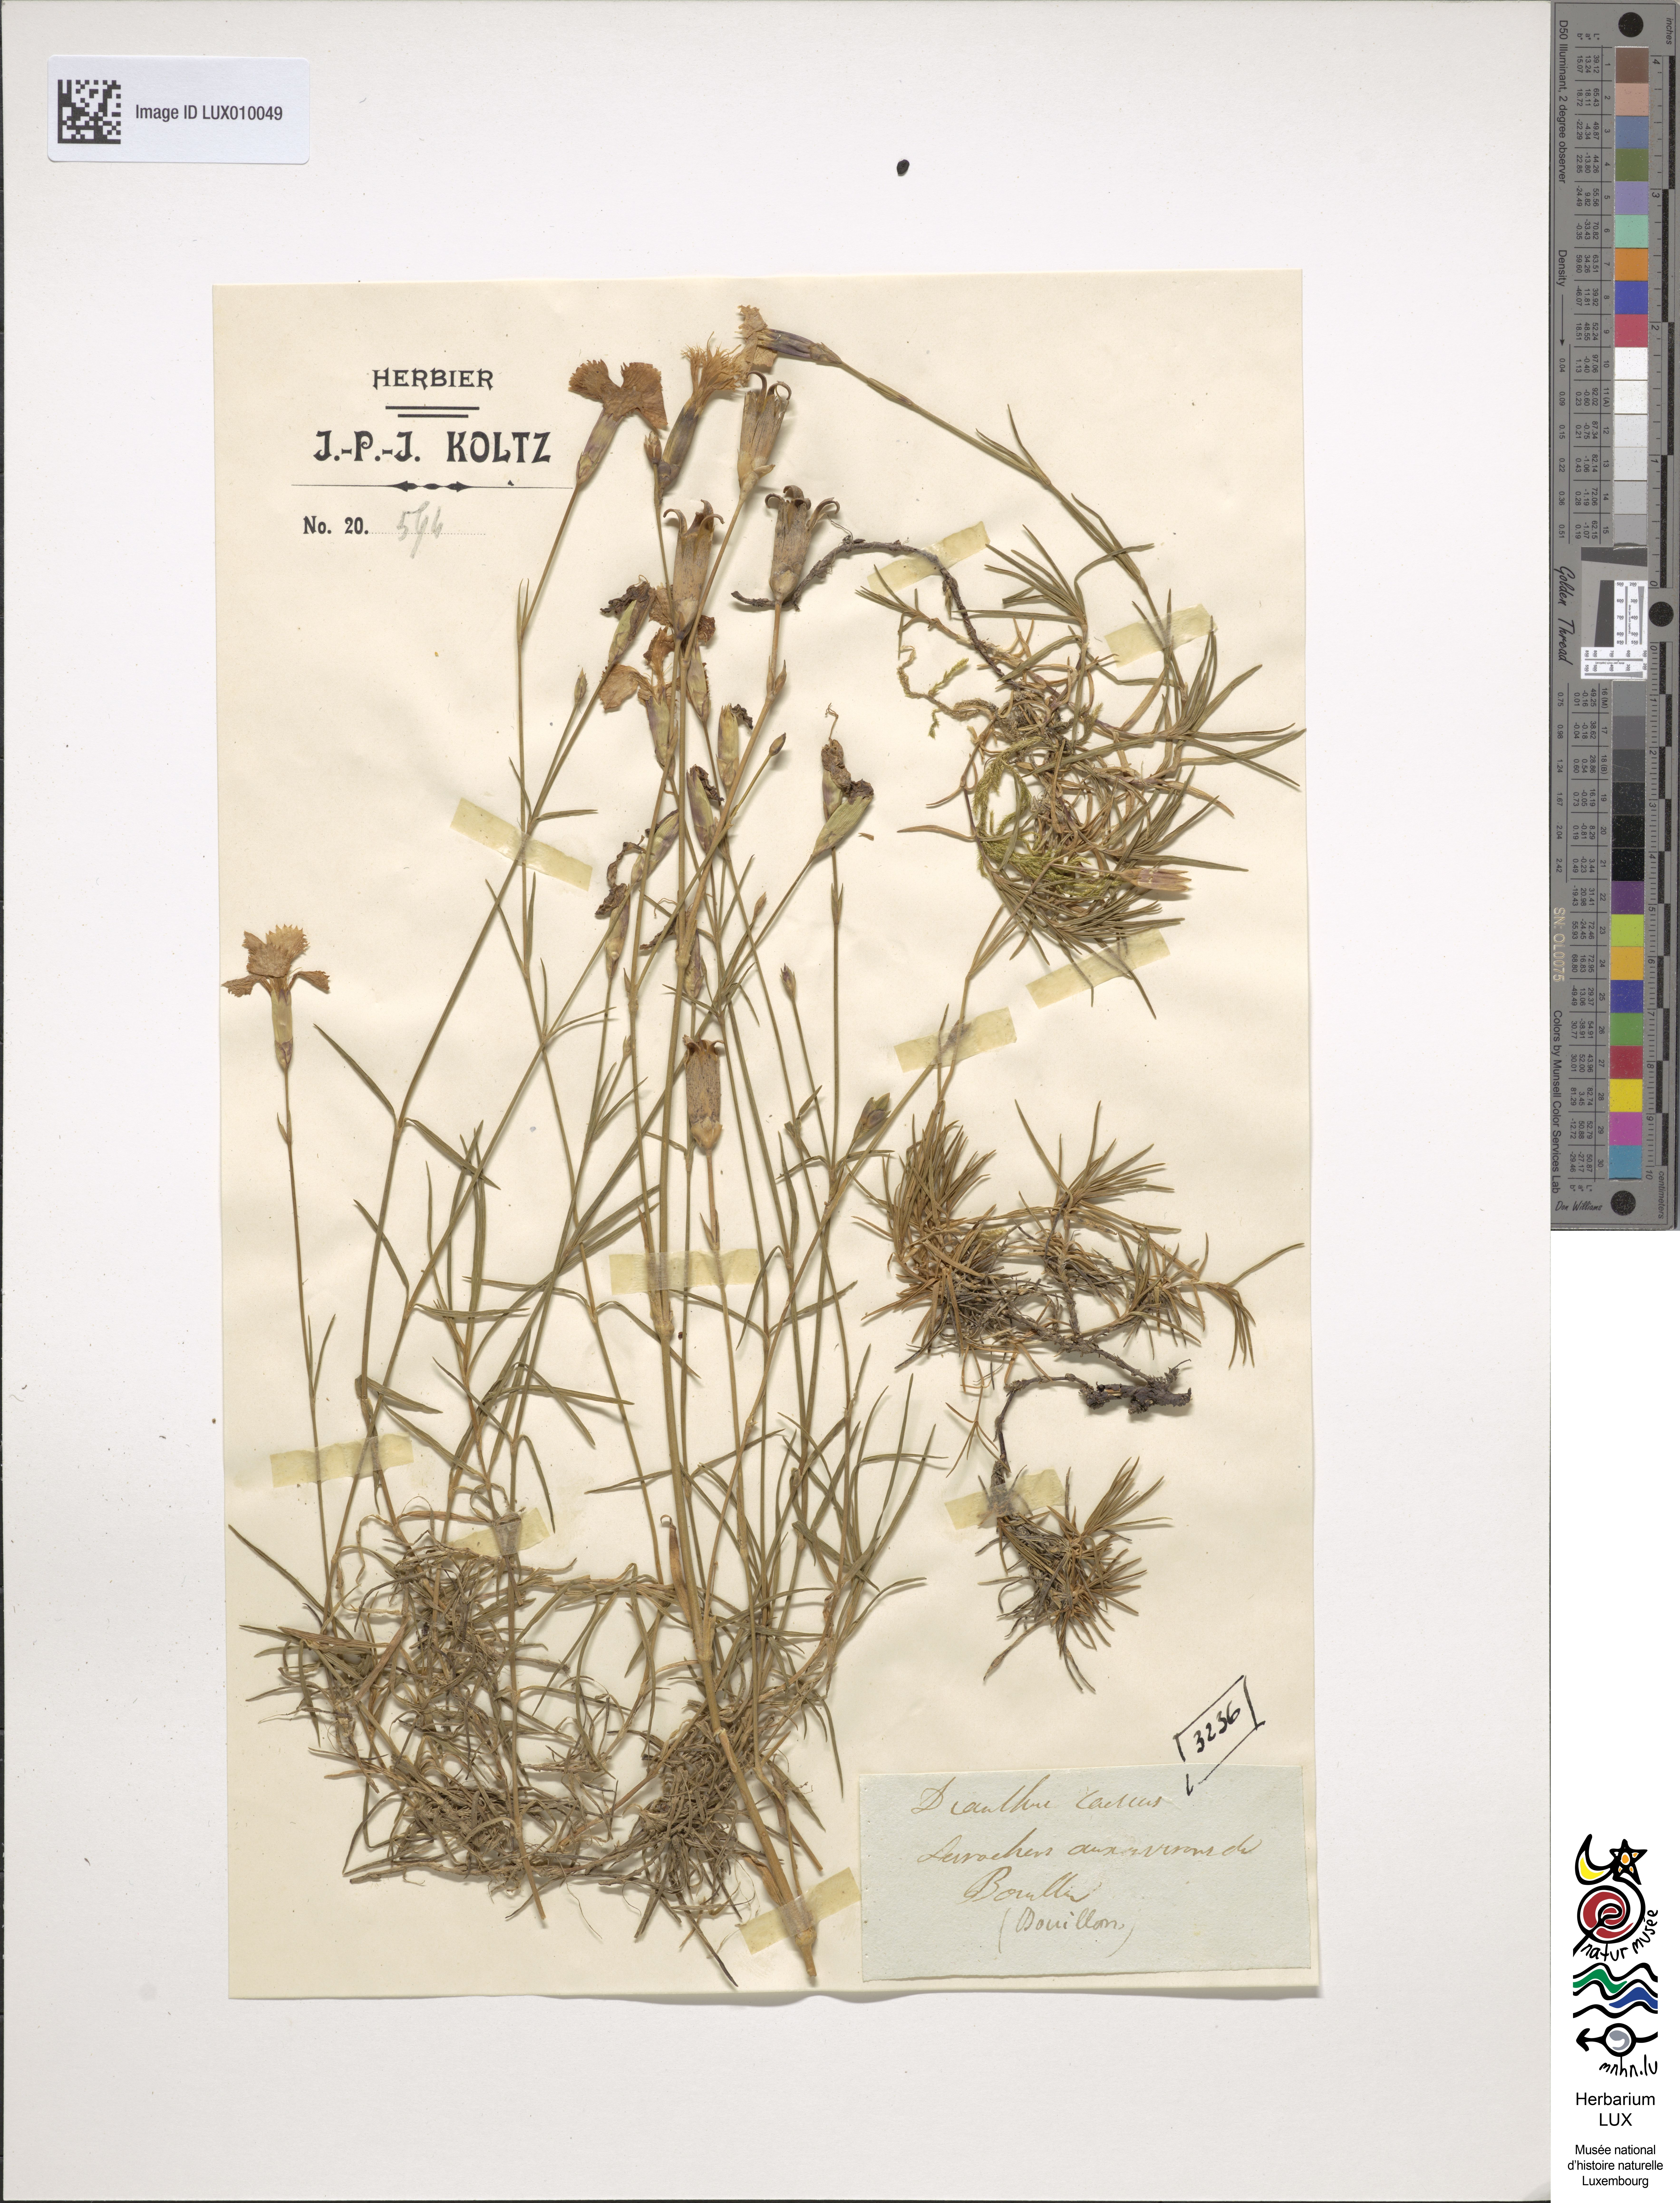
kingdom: Plantae
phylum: Tracheophyta
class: Magnoliopsida
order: Caryophyllales
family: Caryophyllaceae
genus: Dianthus
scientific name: Dianthus gratianopolitanus
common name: Cheddar pink
